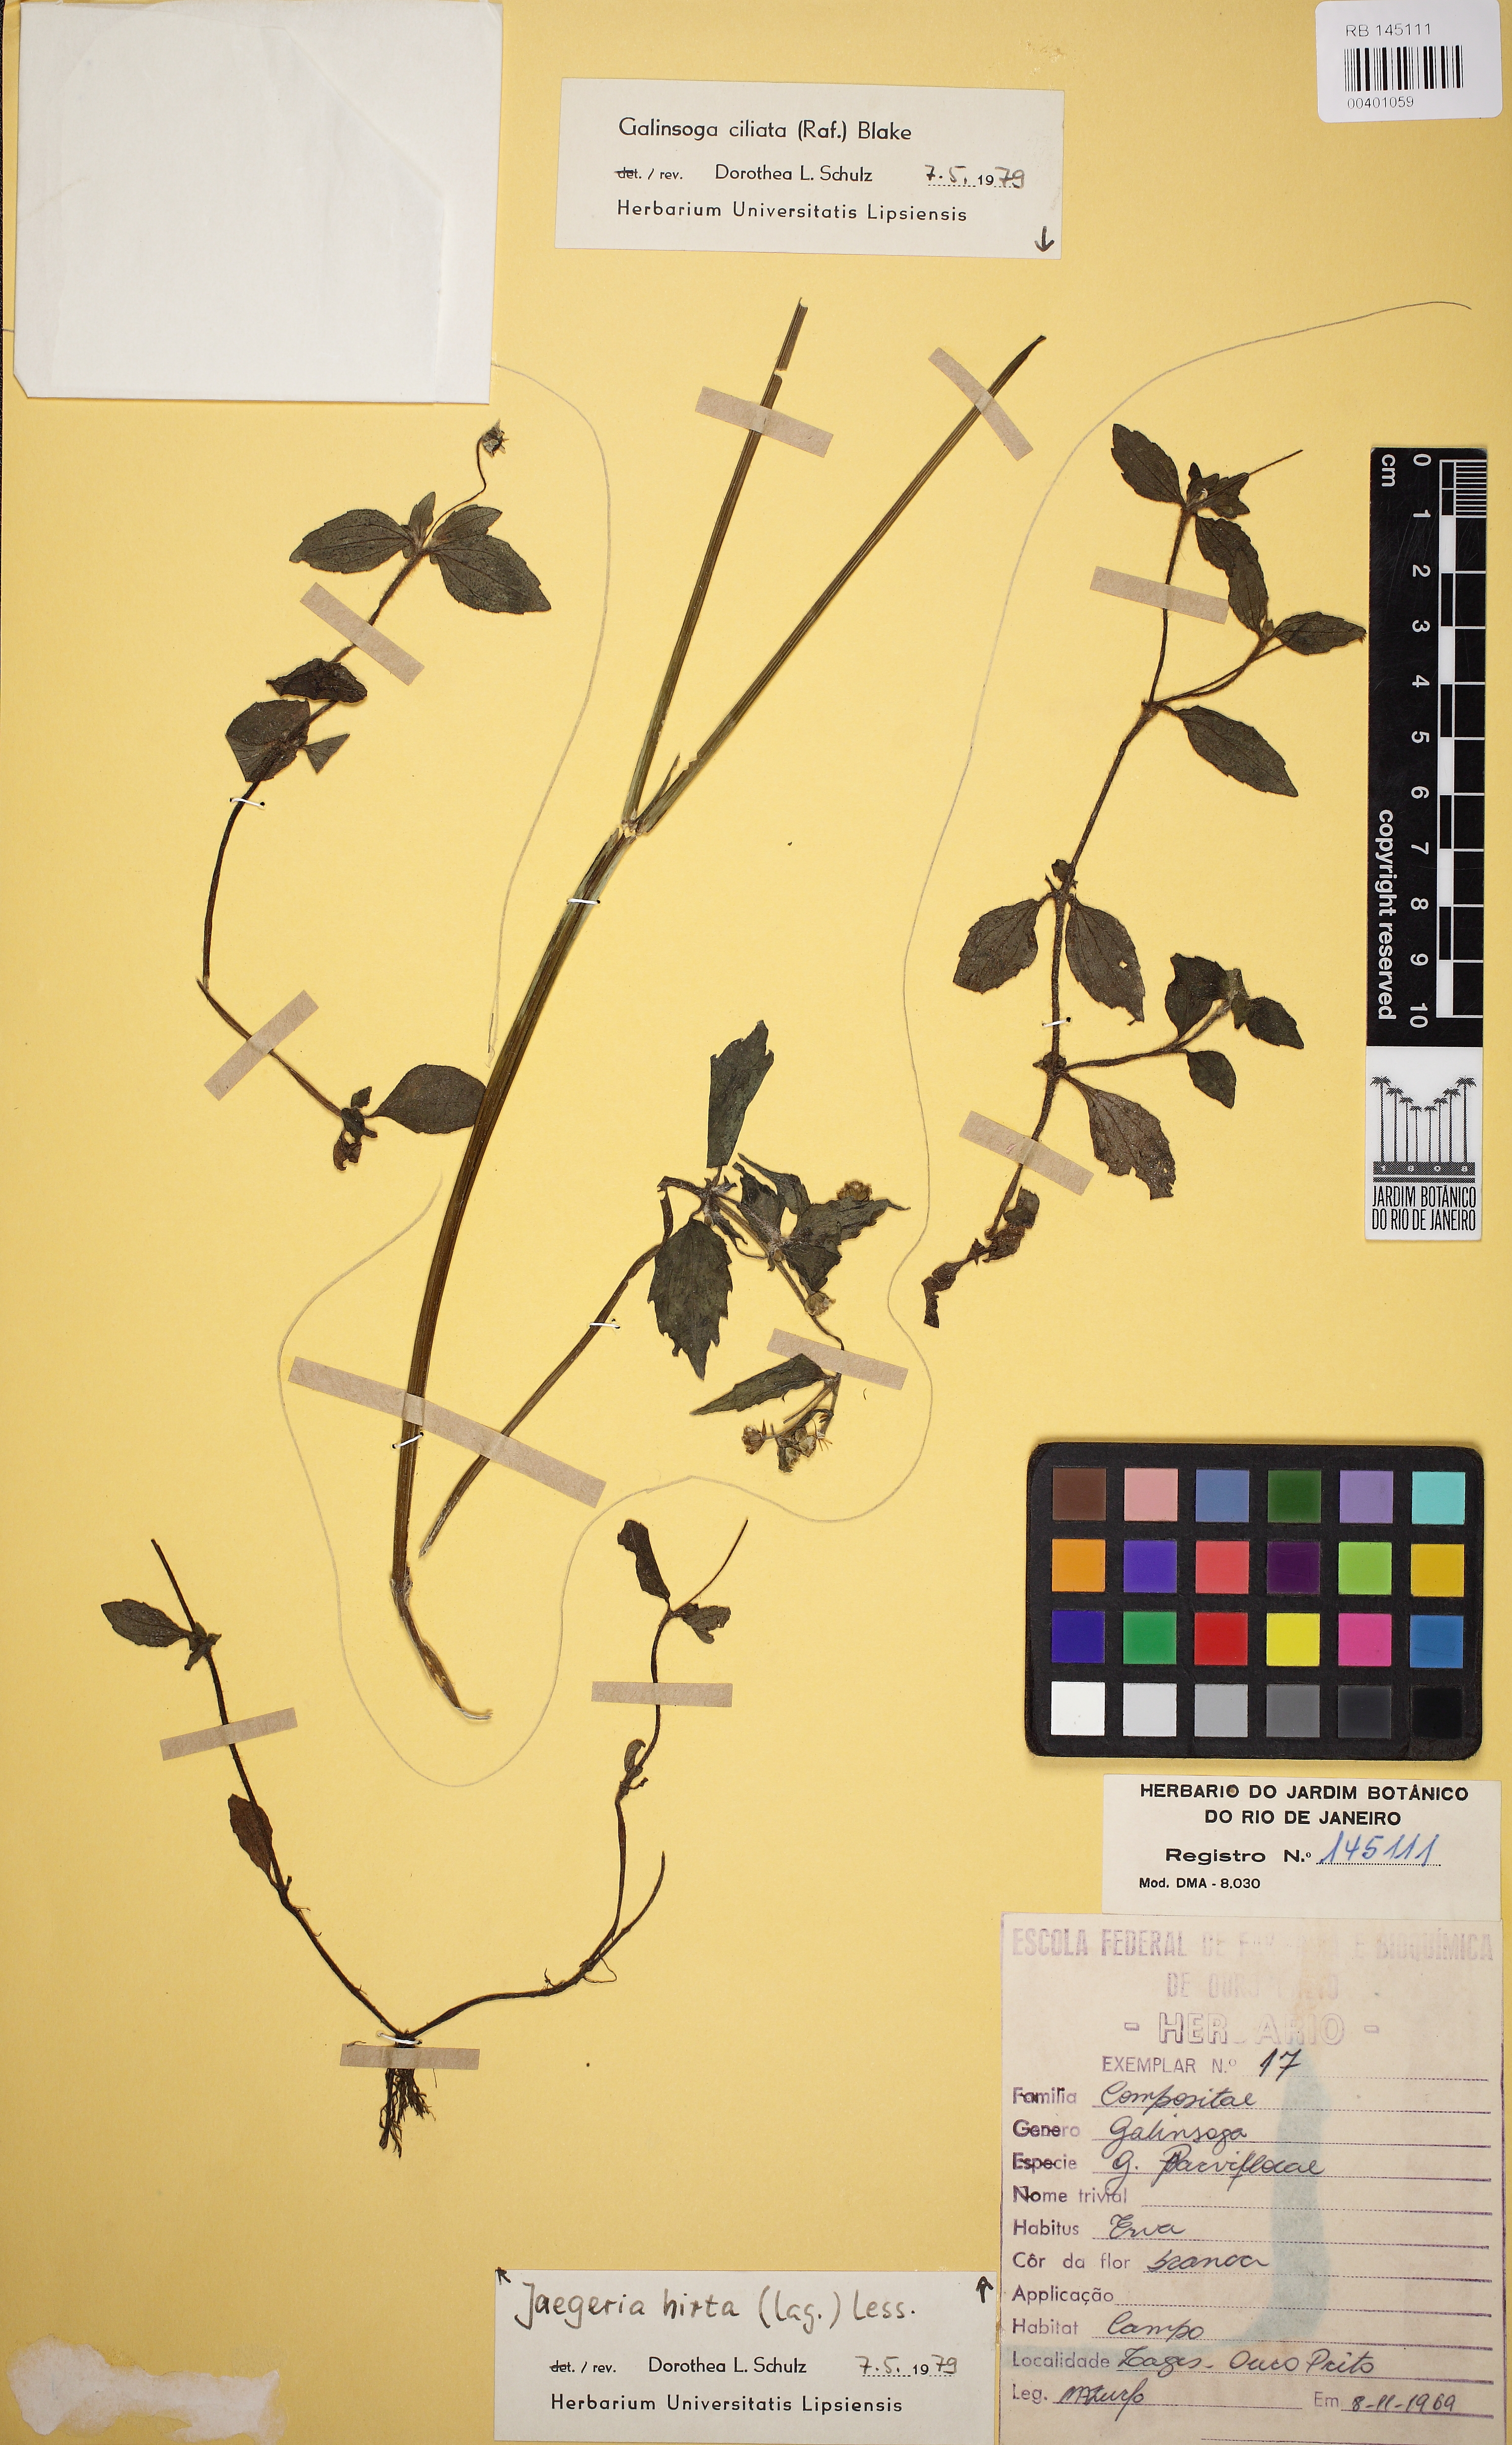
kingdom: Plantae
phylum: Tracheophyta
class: Magnoliopsida
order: Asterales
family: Asteraceae
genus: Galinsoga
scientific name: Galinsoga quadriradiata
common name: Shaggy soldier
